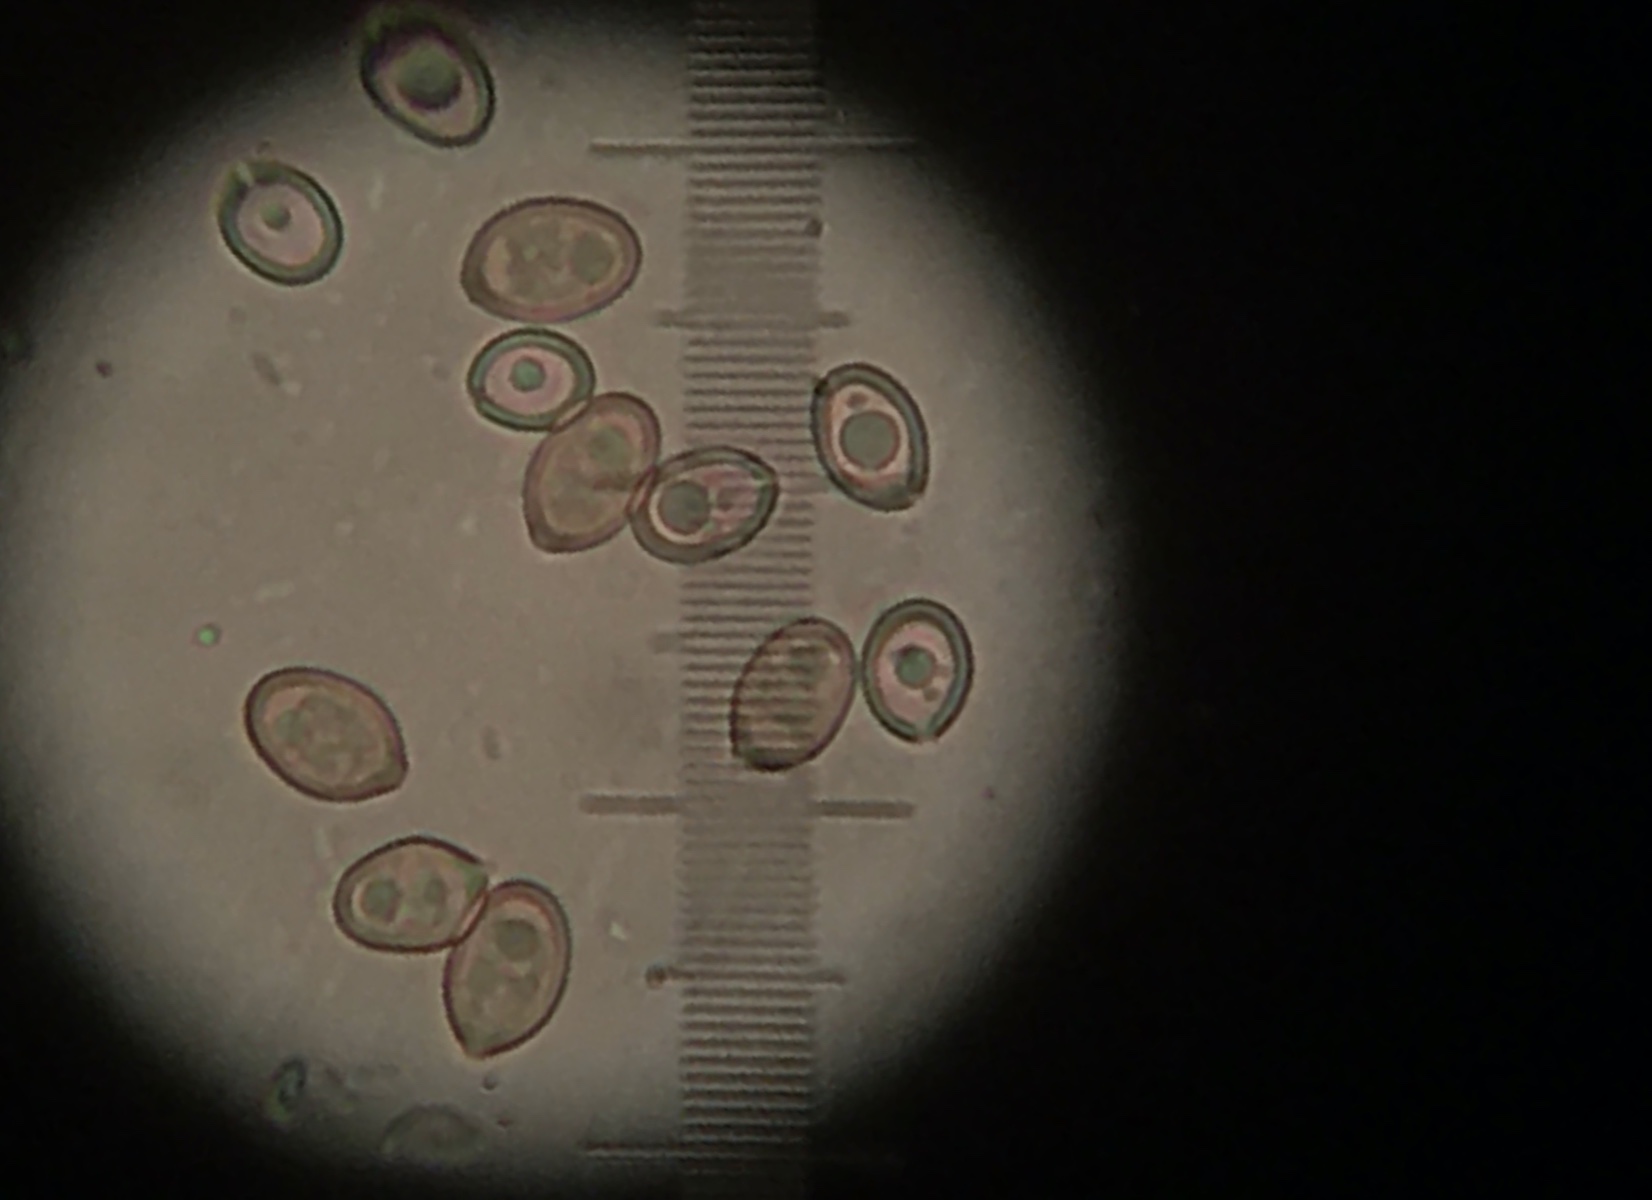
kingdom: Fungi
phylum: Basidiomycota
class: Agaricomycetes
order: Agaricales
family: Pluteaceae
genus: Volvariella
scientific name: Volvariella bombycina
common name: silkehåret posesvamp
